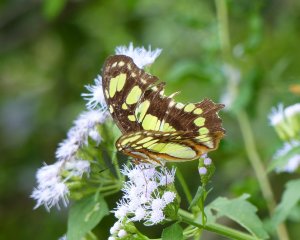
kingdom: Animalia
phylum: Arthropoda
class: Insecta
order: Lepidoptera
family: Nymphalidae
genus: Siproeta
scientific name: Siproeta stelenes
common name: Malachite
